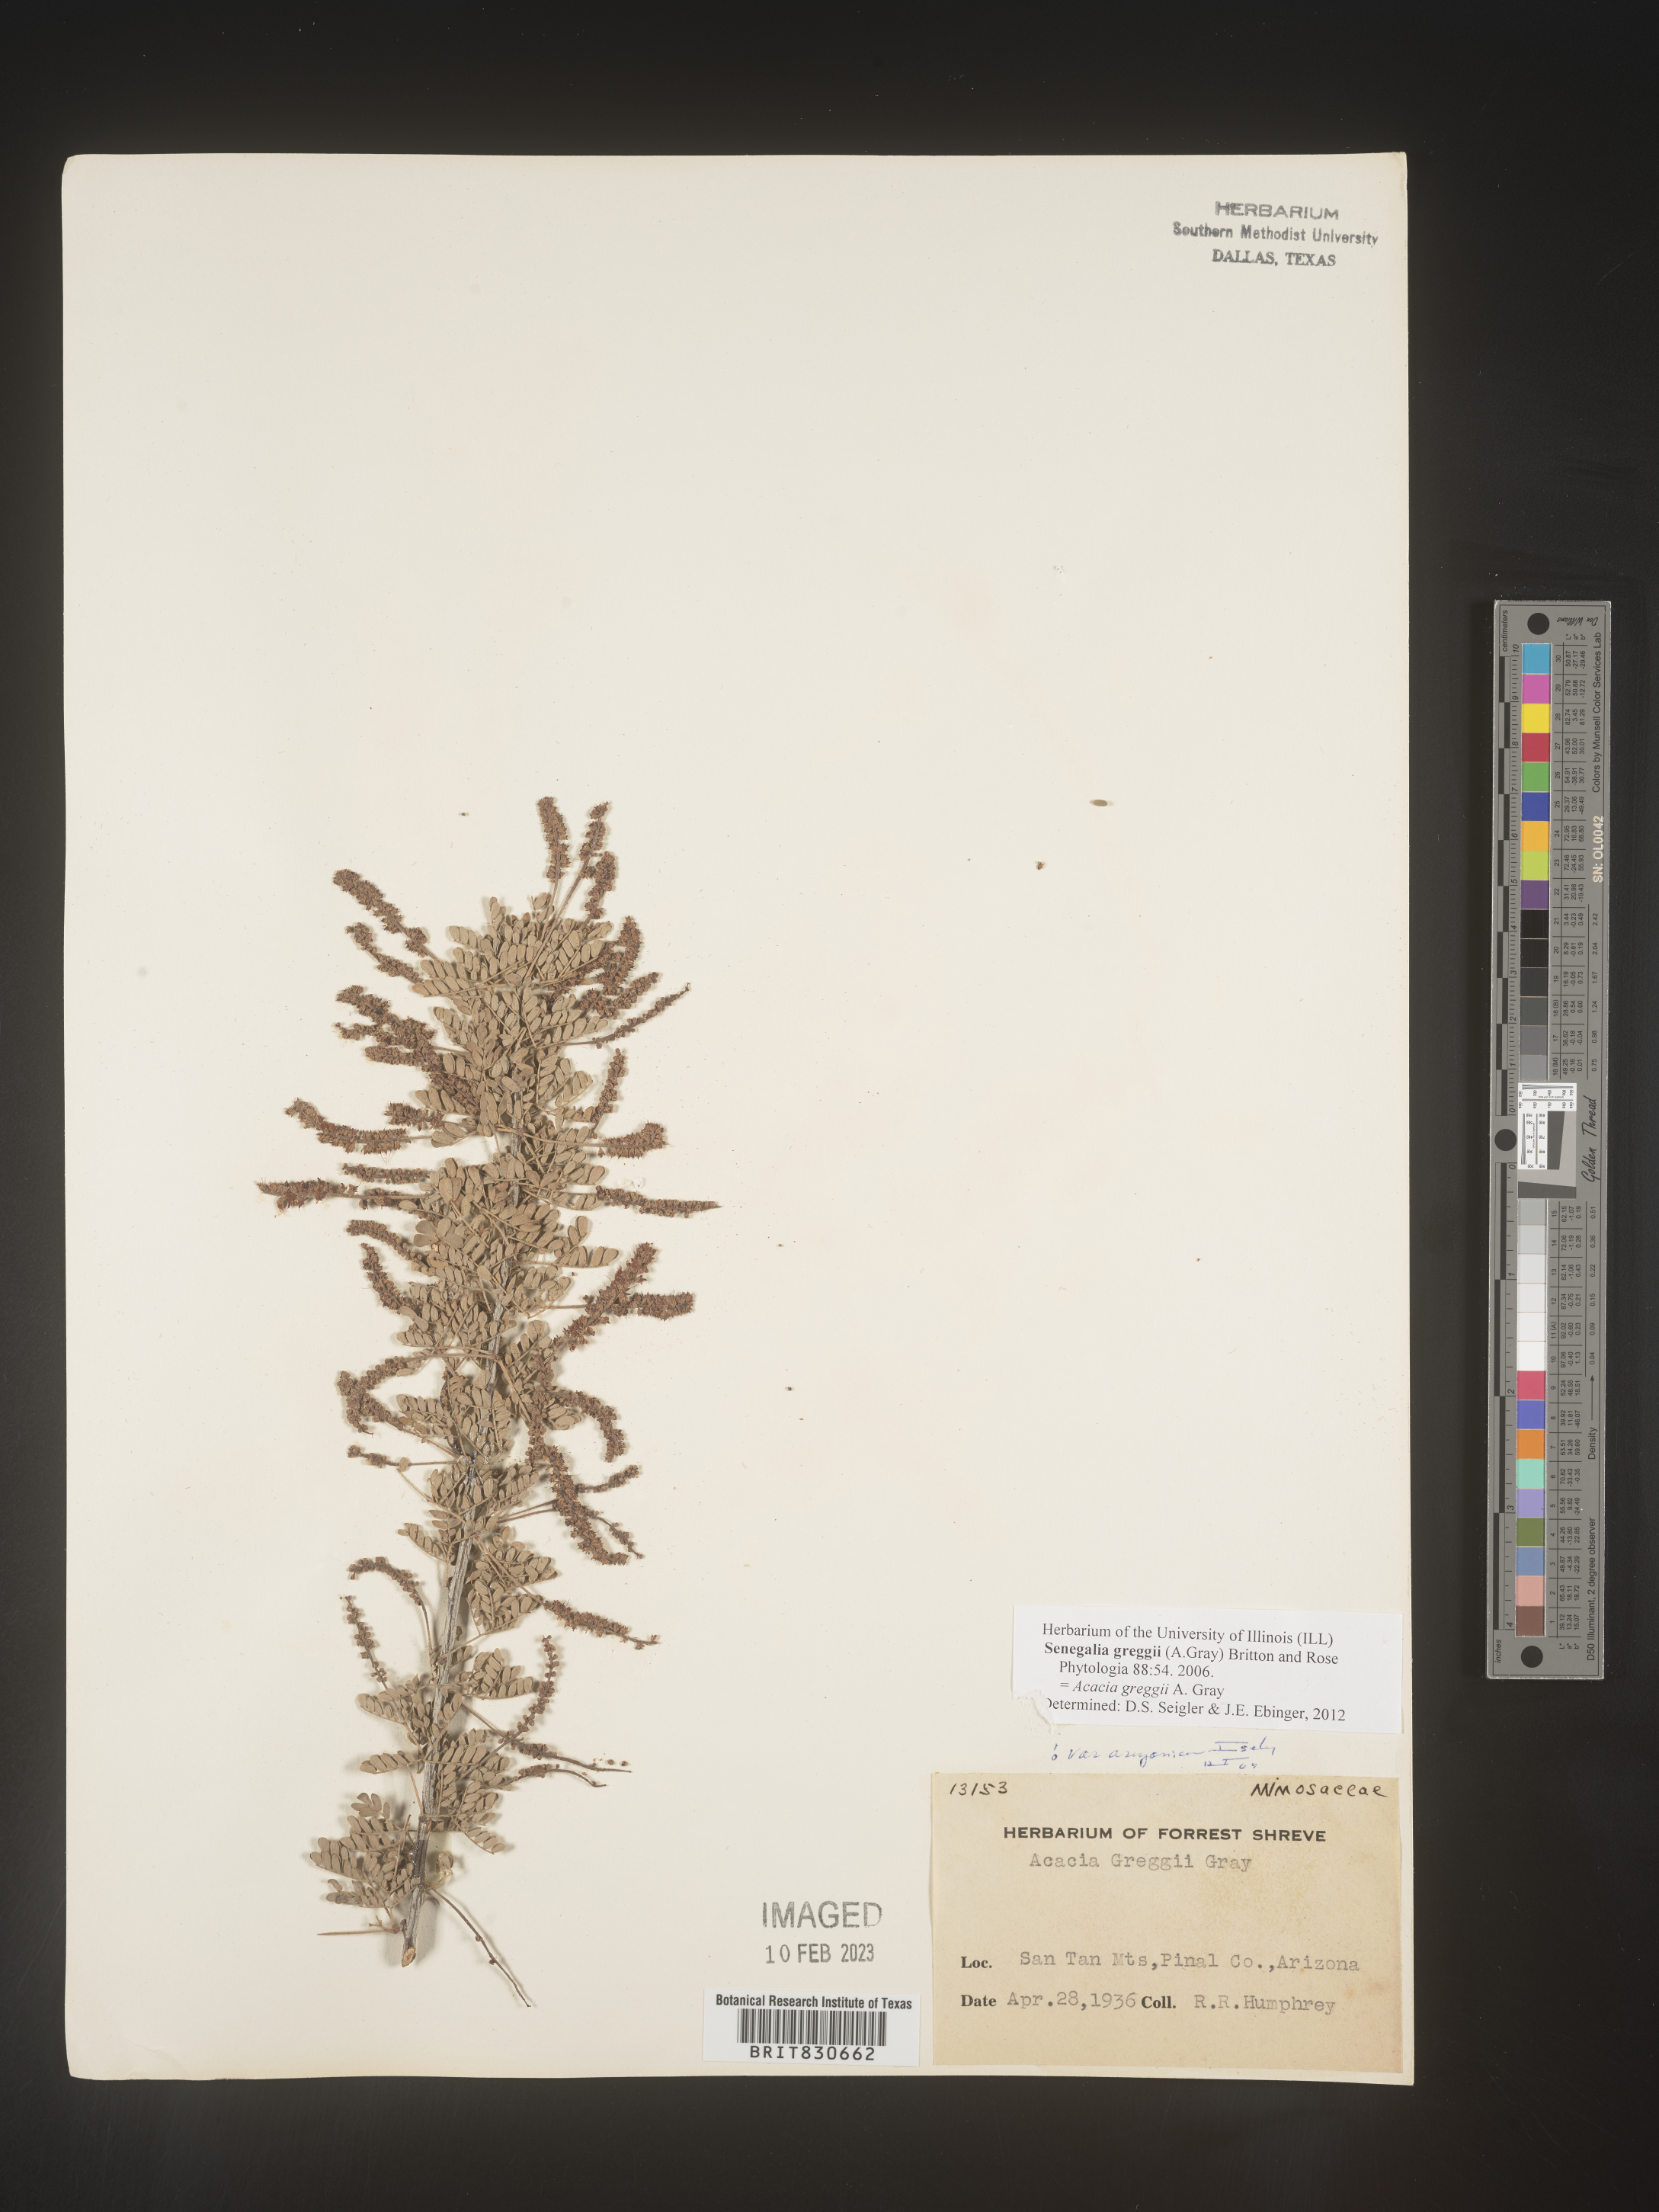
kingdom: Plantae
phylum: Tracheophyta
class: Magnoliopsida
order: Fabales
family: Fabaceae
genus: Senegalia
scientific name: Senegalia greggii
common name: Texas-mimosa
